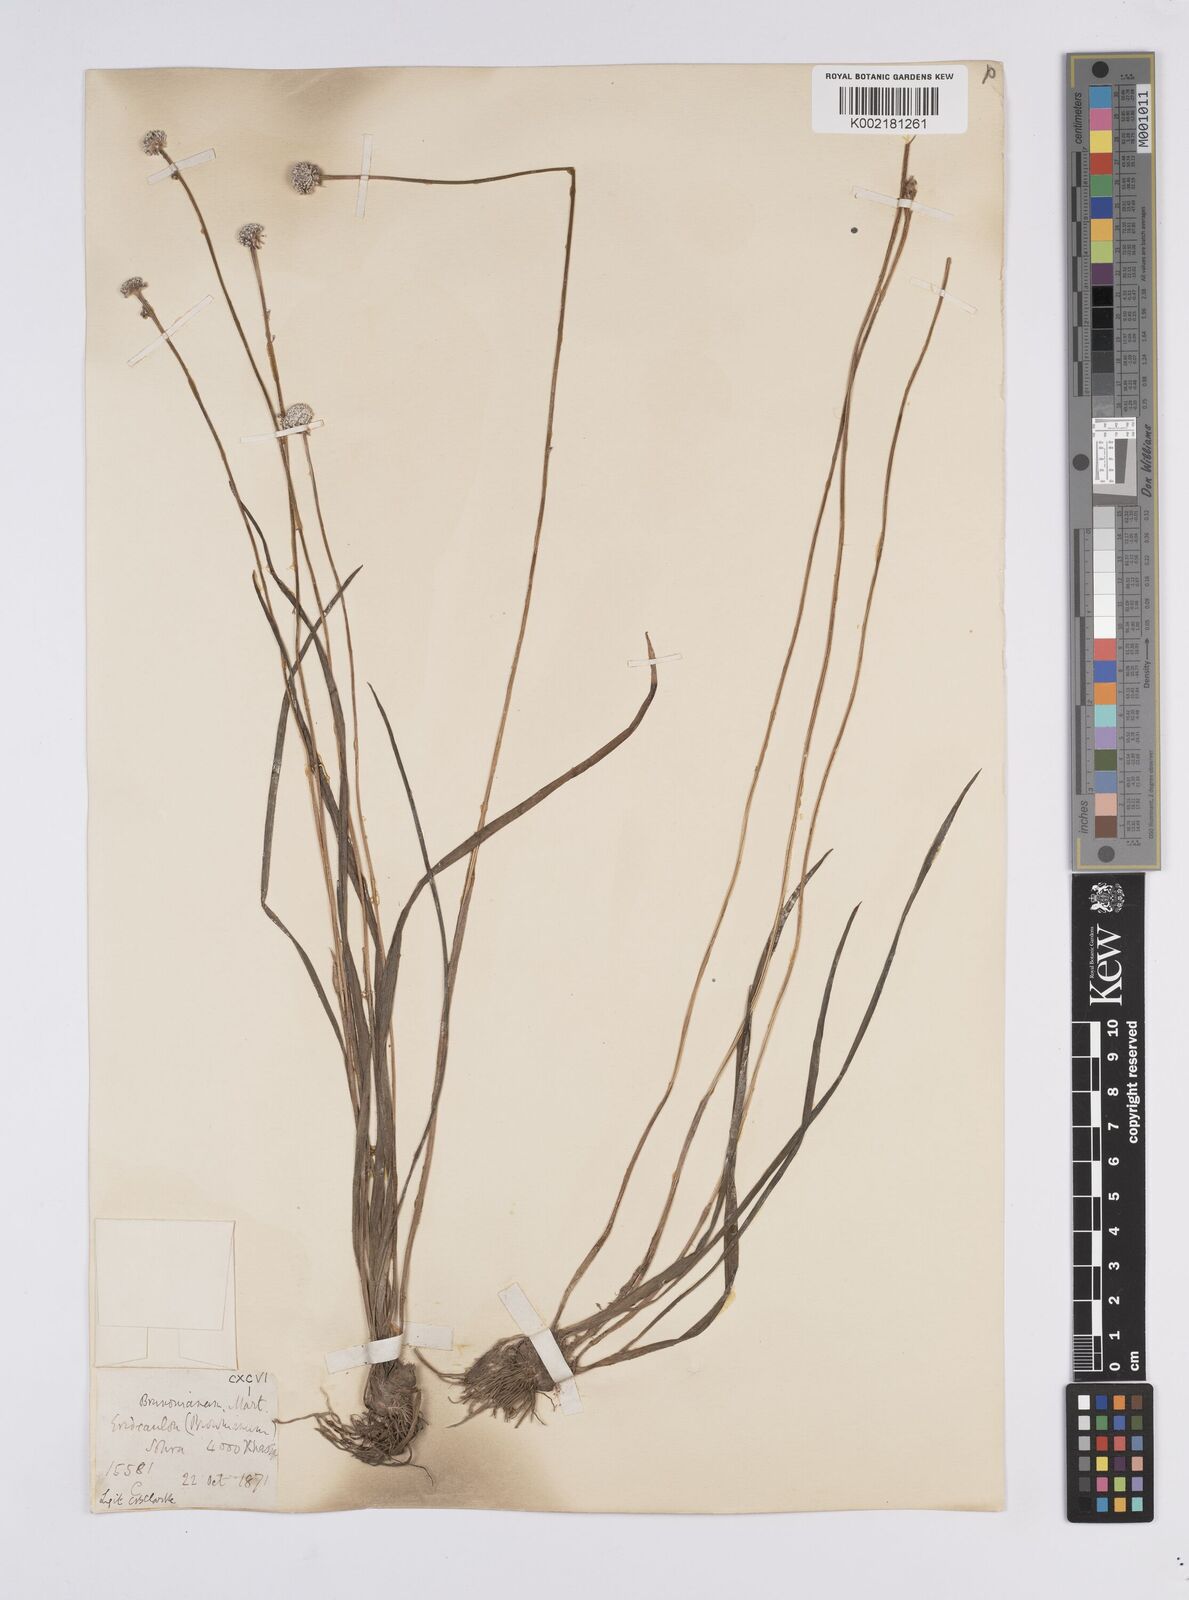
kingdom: Plantae
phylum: Tracheophyta
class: Liliopsida
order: Poales
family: Eriocaulaceae
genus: Eriocaulon
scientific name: Eriocaulon brownianum
